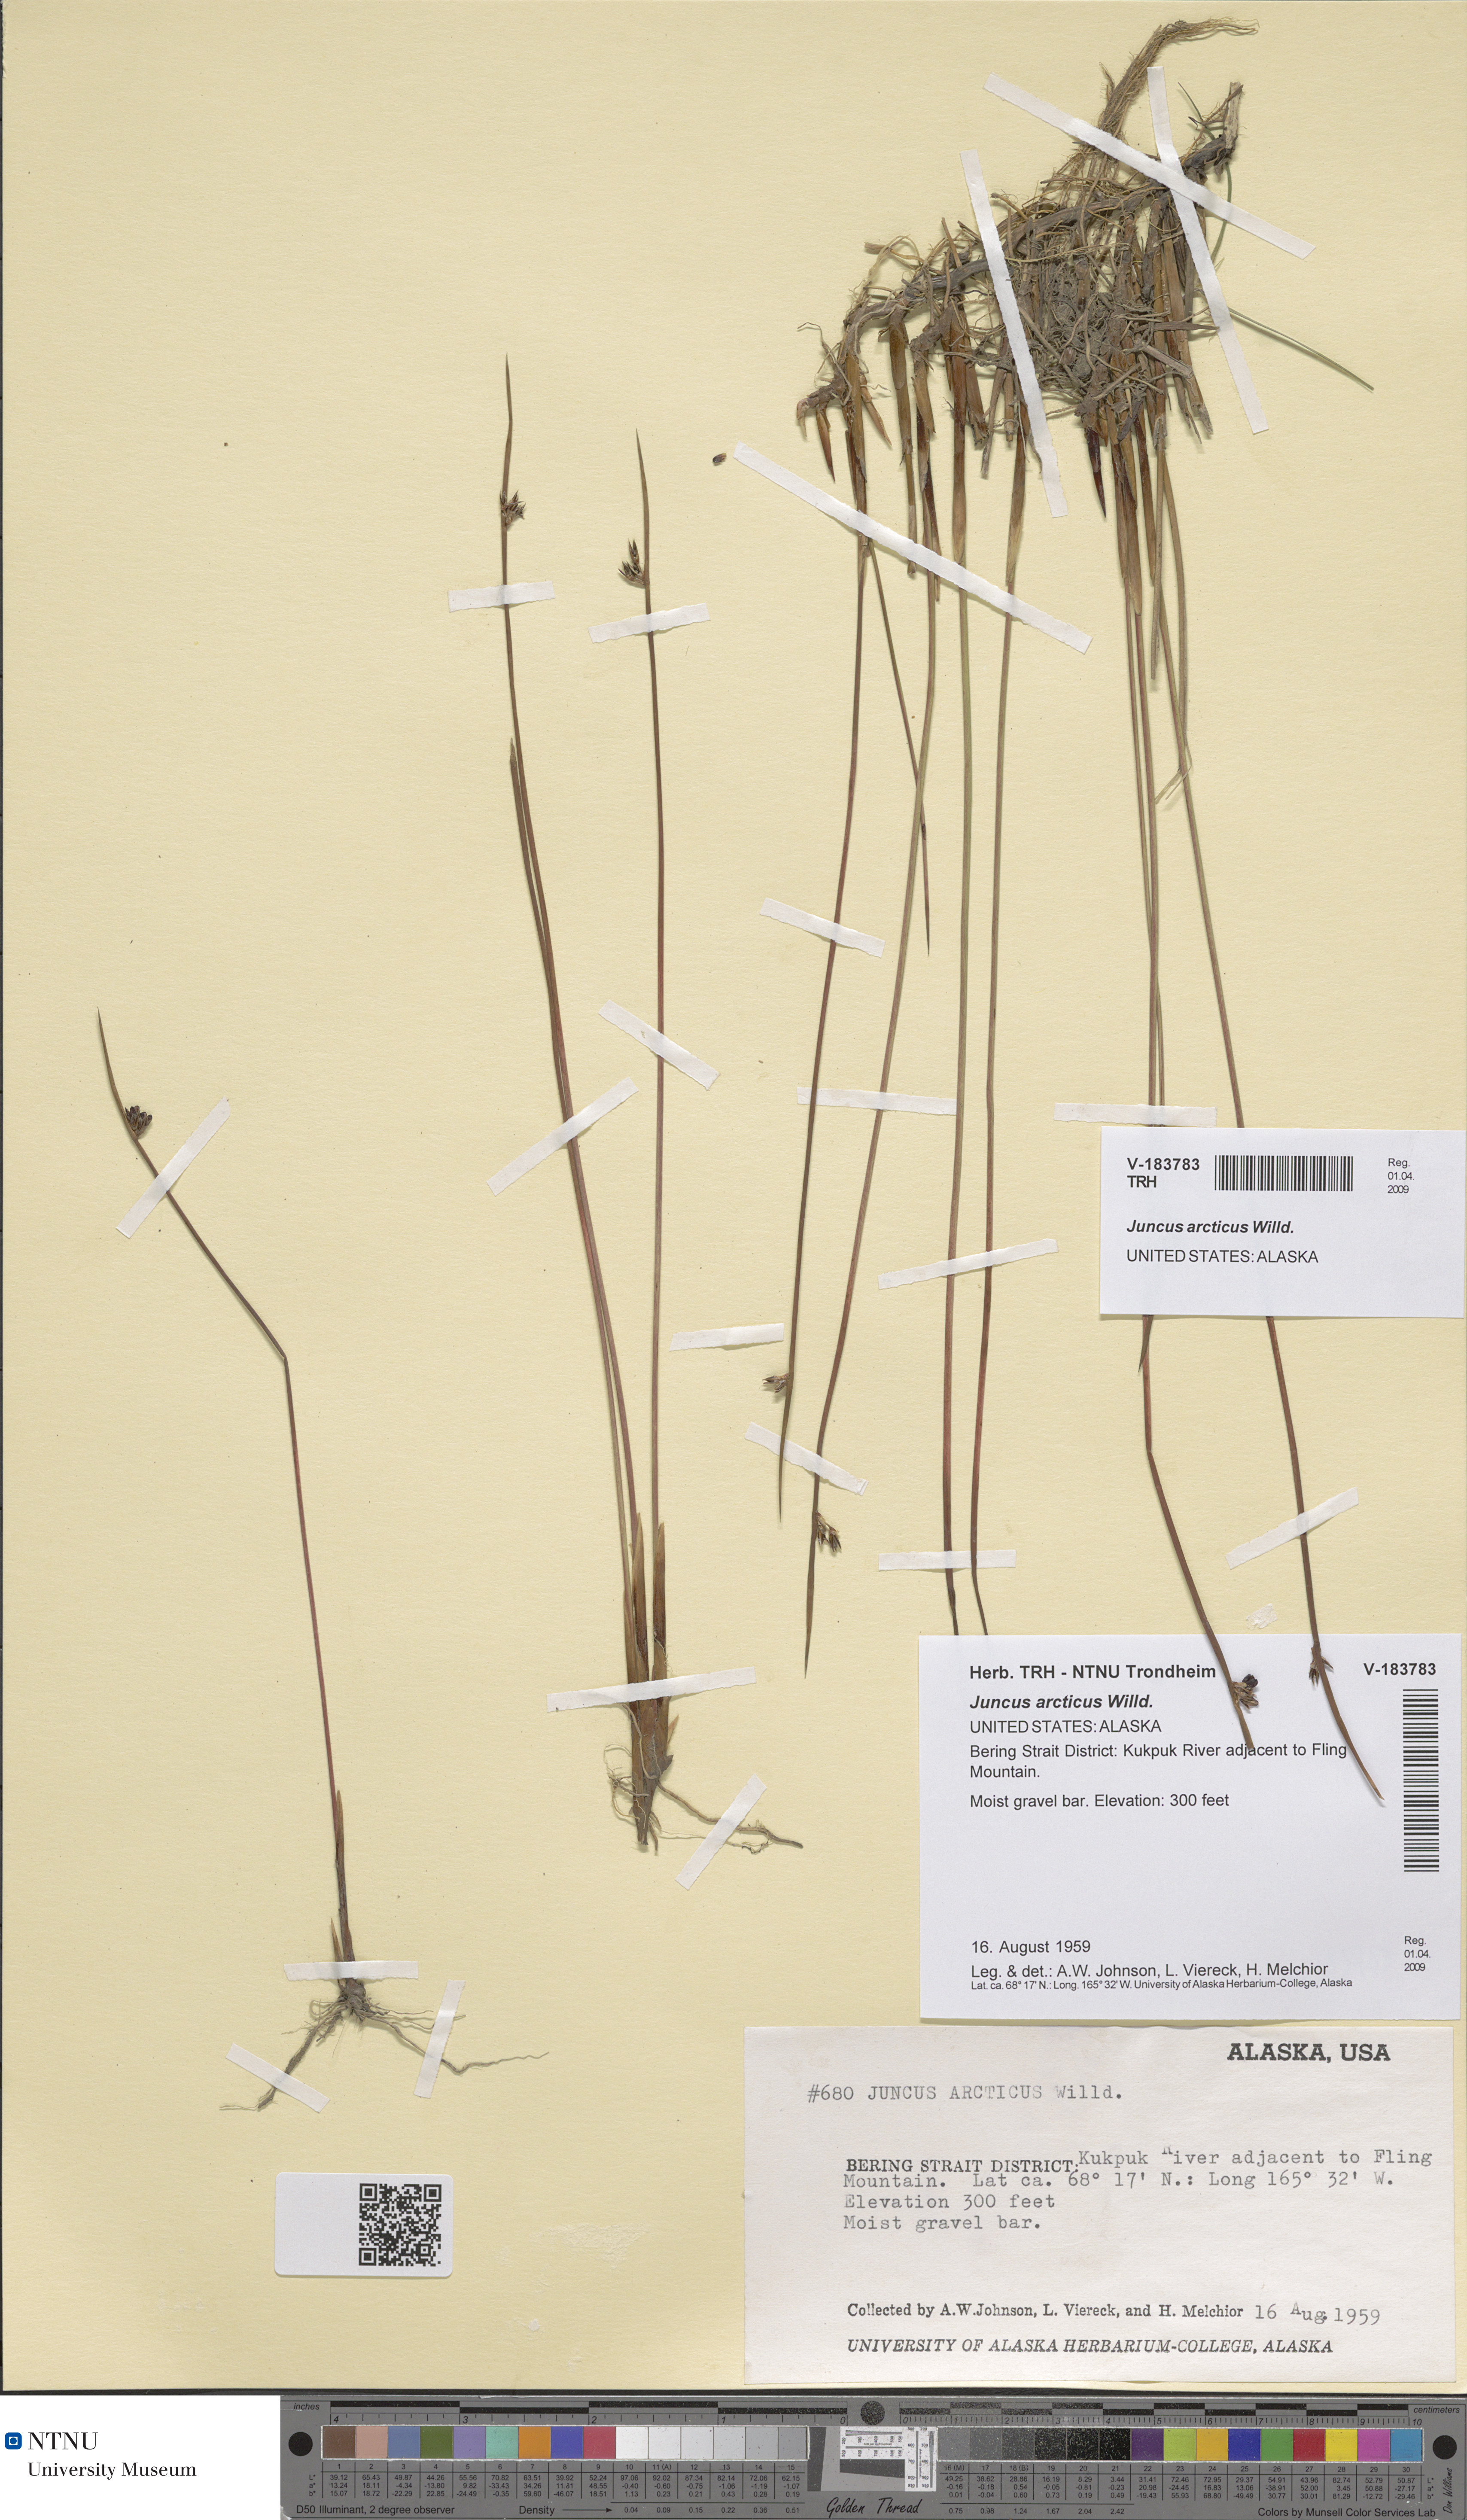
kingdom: Plantae
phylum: Tracheophyta
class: Liliopsida
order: Poales
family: Juncaceae
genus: Juncus
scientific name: Juncus arcticus
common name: Arctic rush
